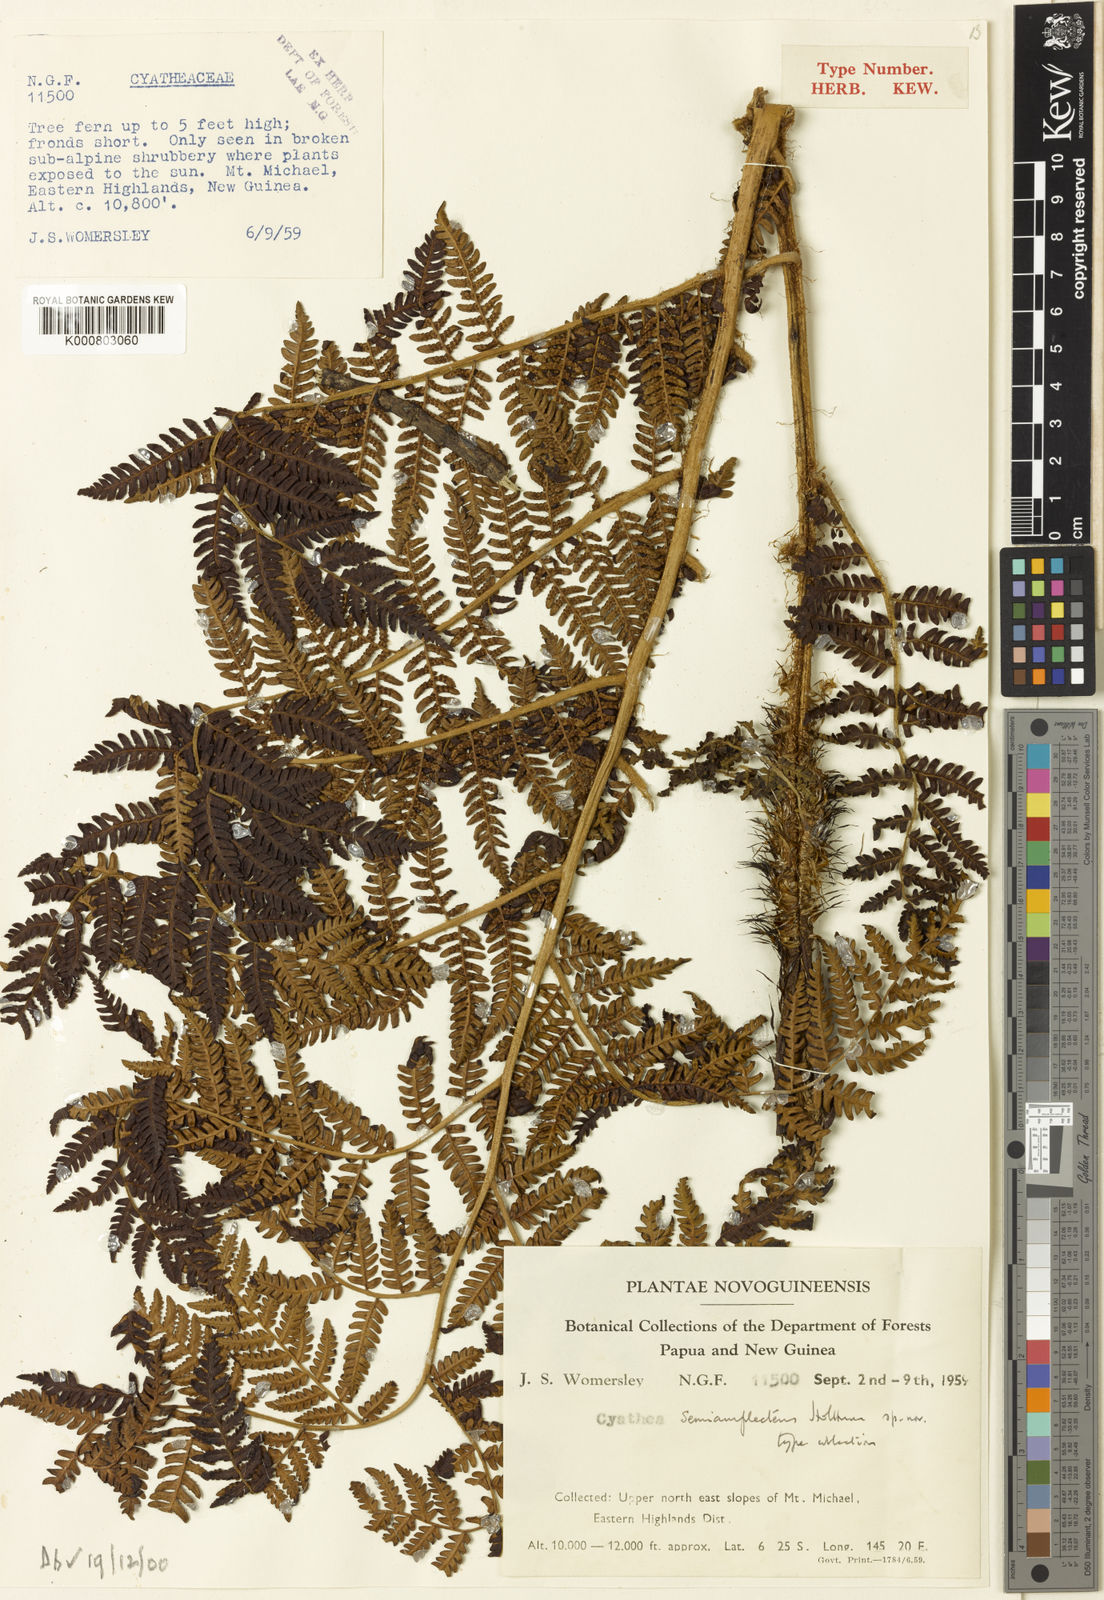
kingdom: Plantae
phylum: Tracheophyta
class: Polypodiopsida
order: Cyatheales
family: Cyatheaceae
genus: Alsophila
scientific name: Alsophila semiamplectens
